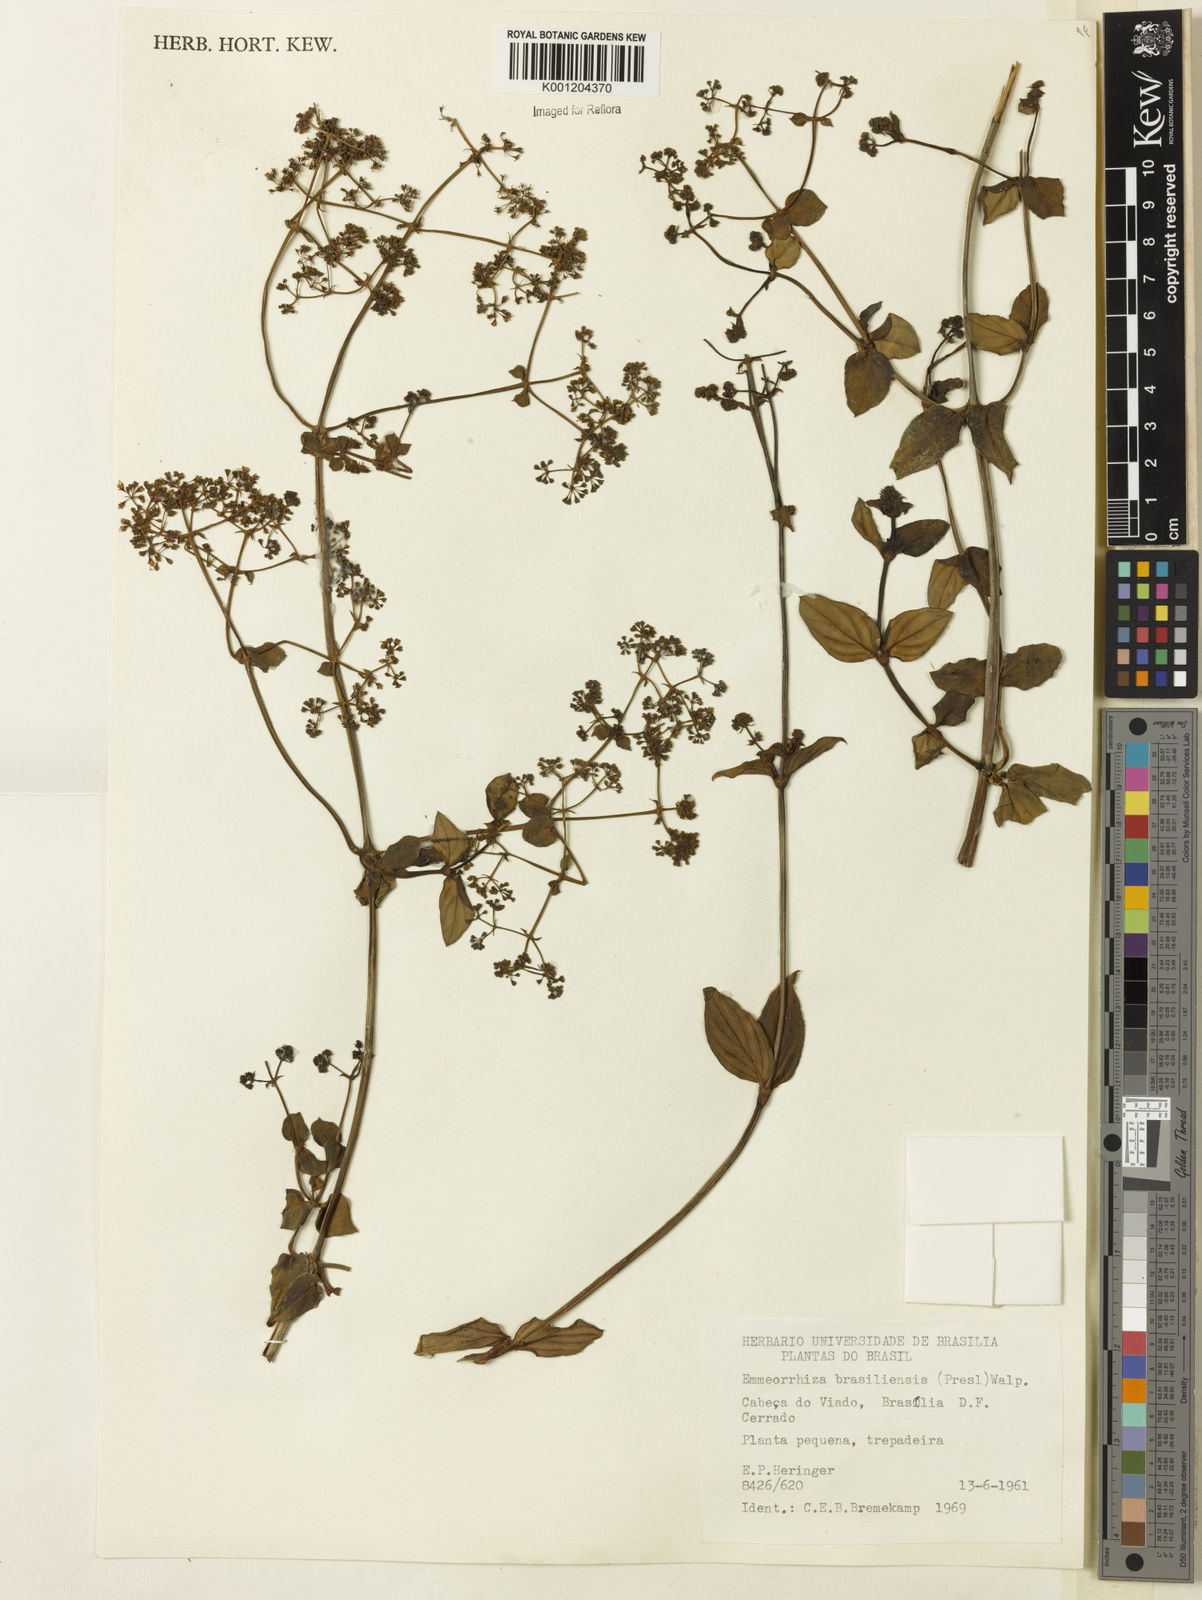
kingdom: Plantae
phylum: Tracheophyta
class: Magnoliopsida
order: Gentianales
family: Rubiaceae
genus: Emmeorhiza
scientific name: Emmeorhiza umbellata
